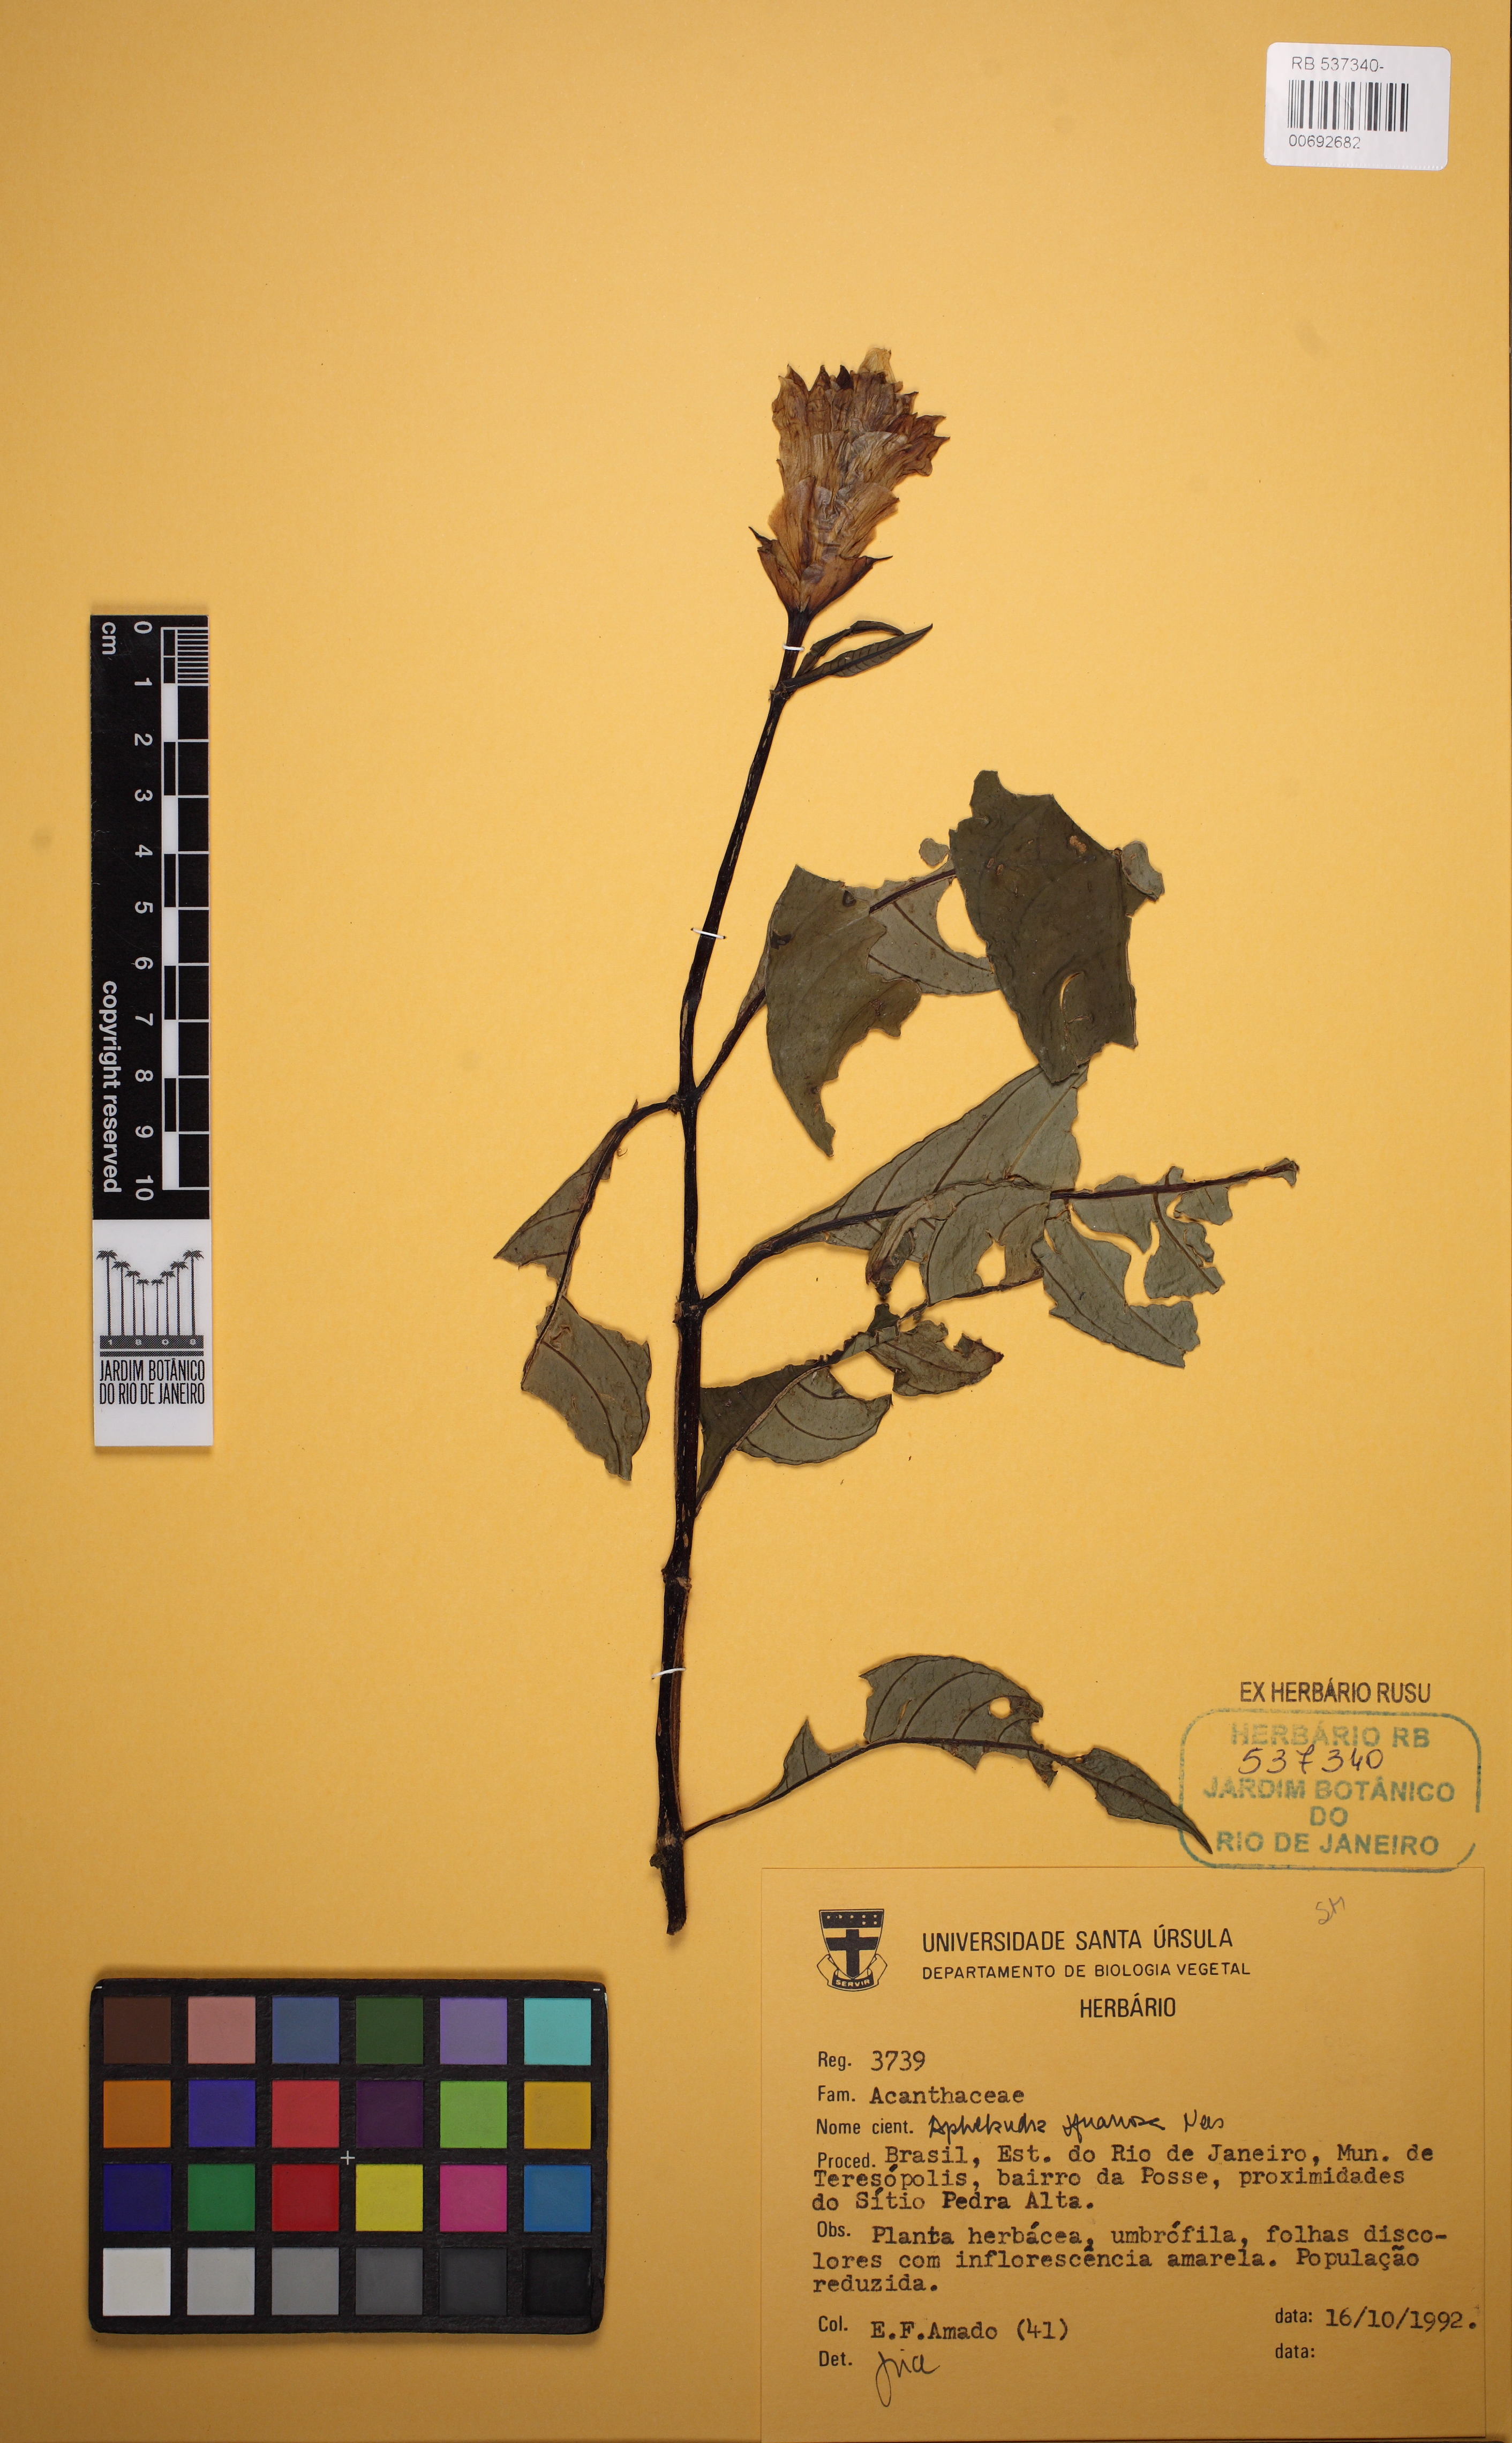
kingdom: Plantae
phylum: Tracheophyta
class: Magnoliopsida
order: Lamiales
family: Acanthaceae
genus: Aphelandra
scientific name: Aphelandra squarrosa
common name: Saffron spike
